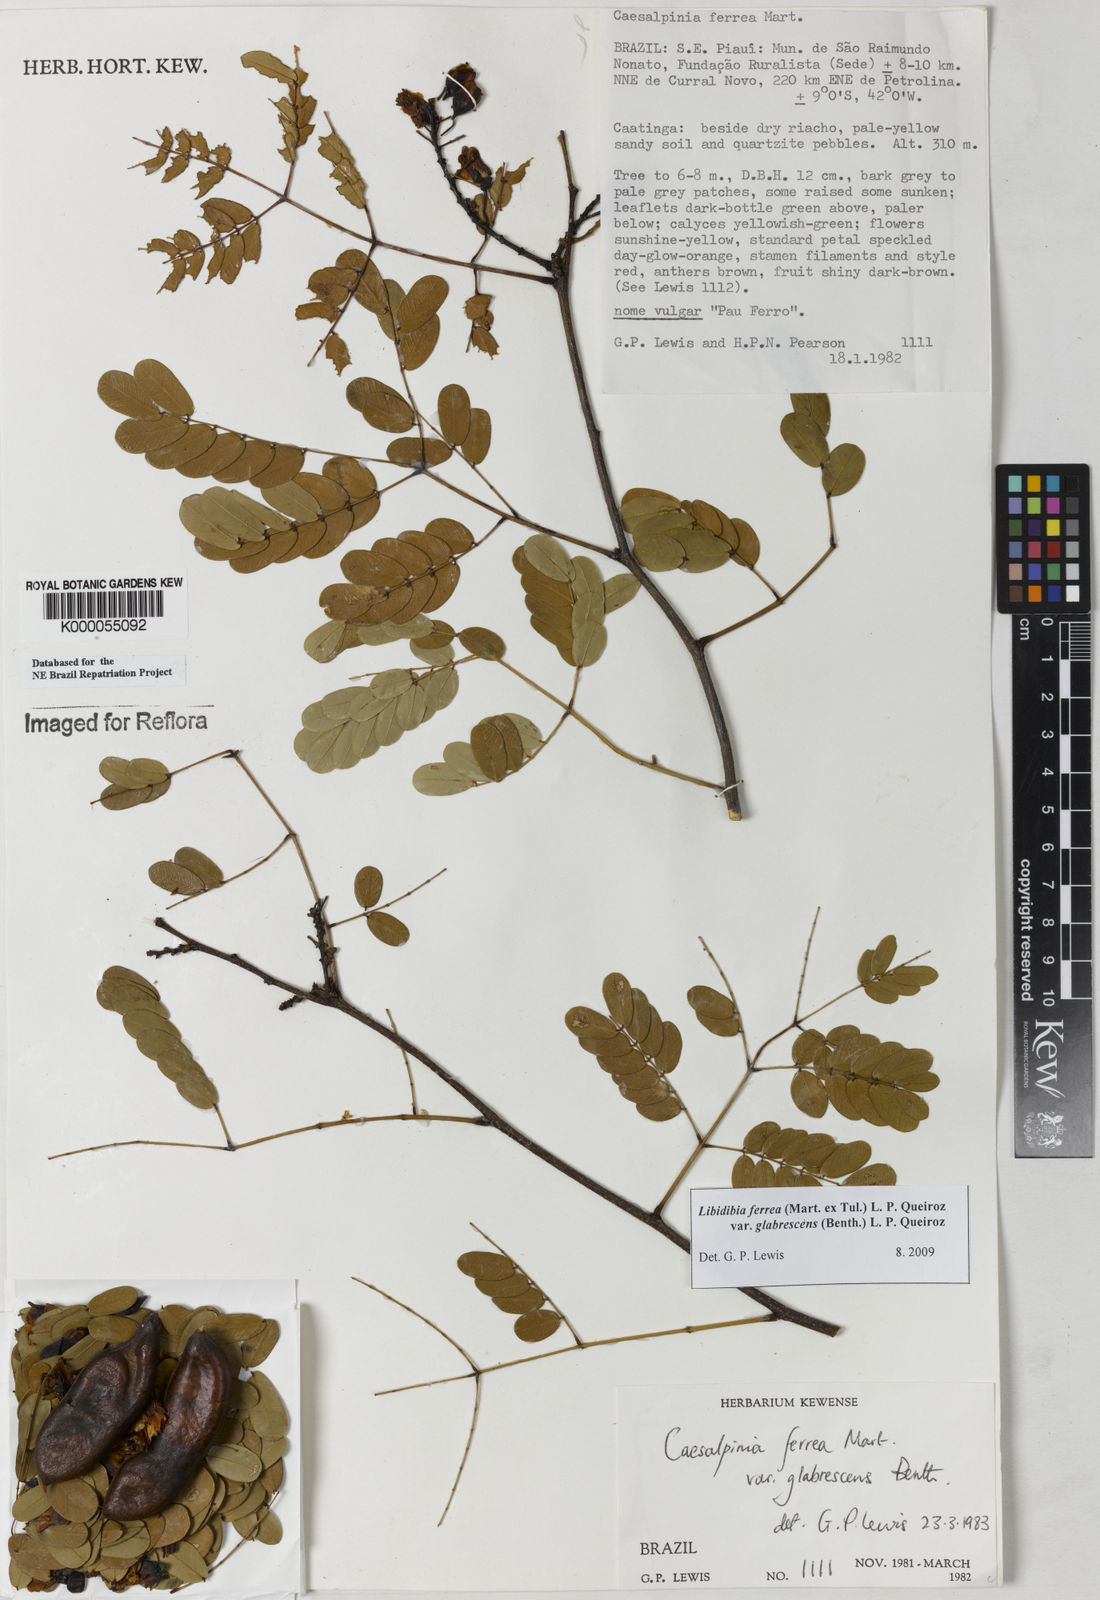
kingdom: Plantae
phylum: Tracheophyta
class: Magnoliopsida
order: Fabales
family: Fabaceae
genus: Libidibia
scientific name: Libidibia ferrea
